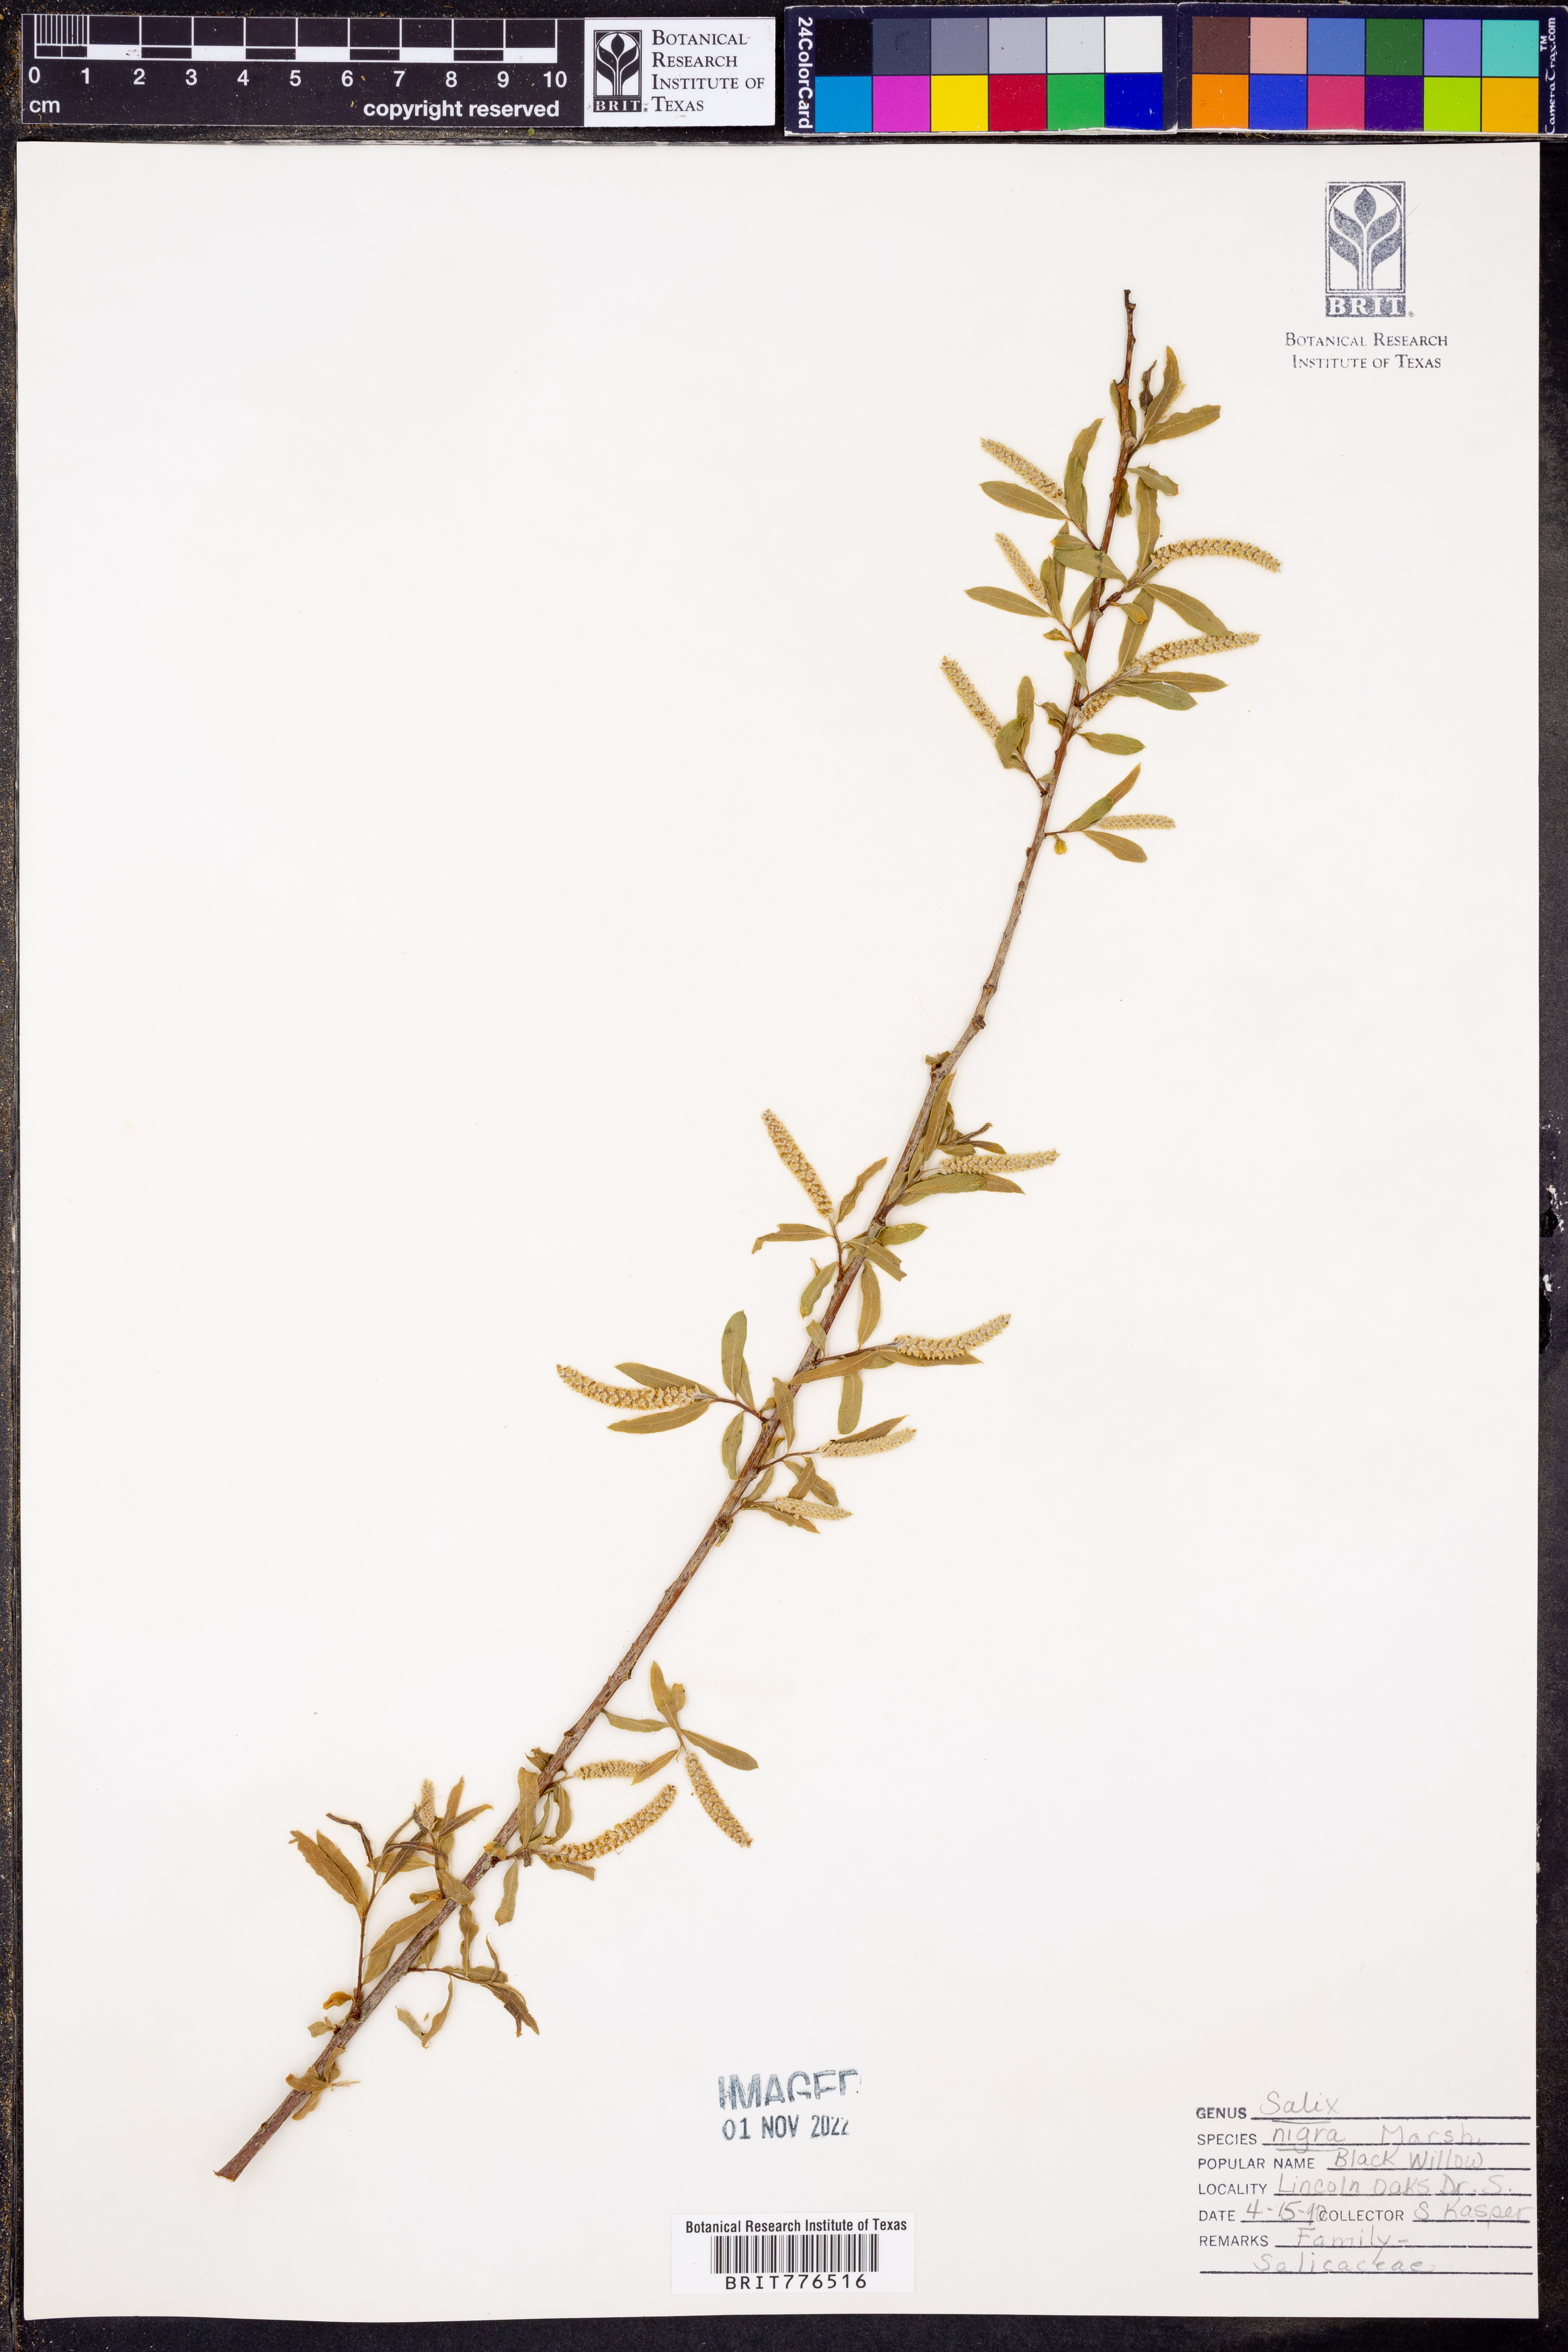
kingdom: Plantae
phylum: Tracheophyta
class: Magnoliopsida
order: Malpighiales
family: Salicaceae
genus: Salix
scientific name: Salix nigra
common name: Black willow
